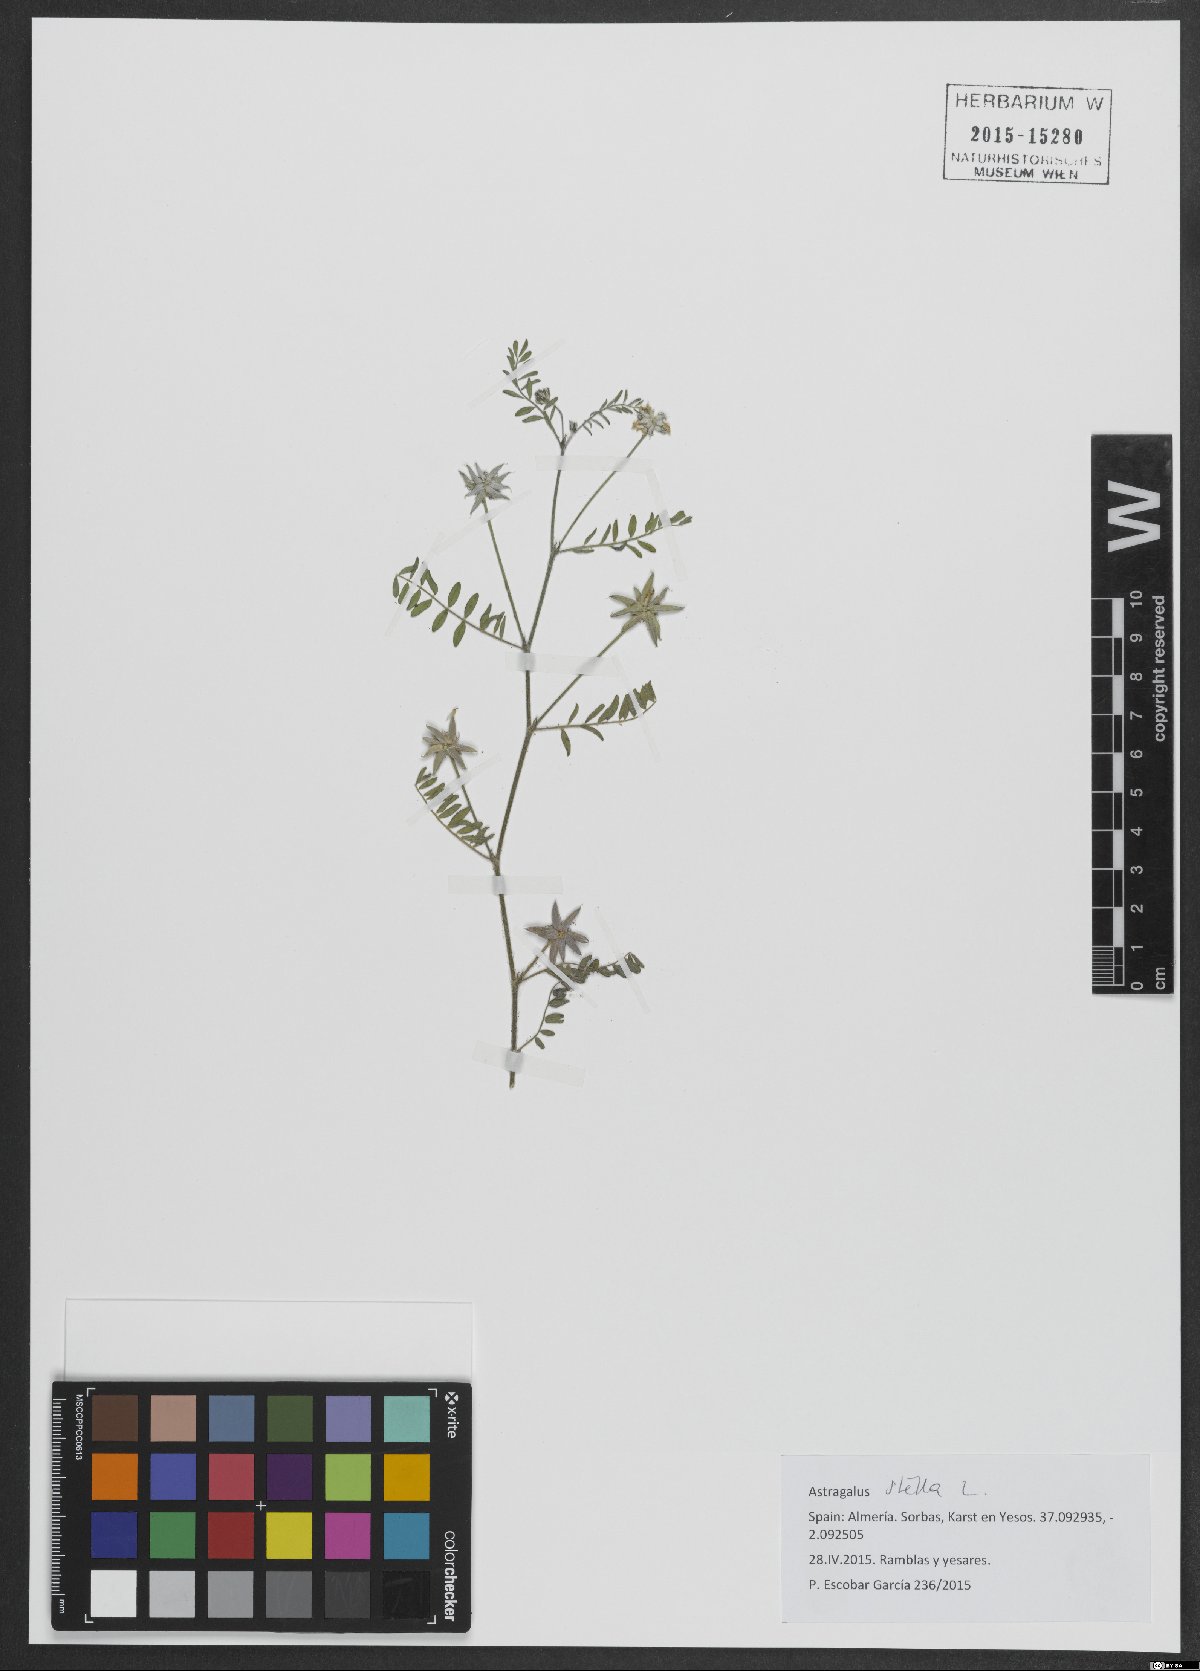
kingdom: Plantae
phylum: Tracheophyta
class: Magnoliopsida
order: Fabales
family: Fabaceae
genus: Astragalus
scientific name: Astragalus stella
